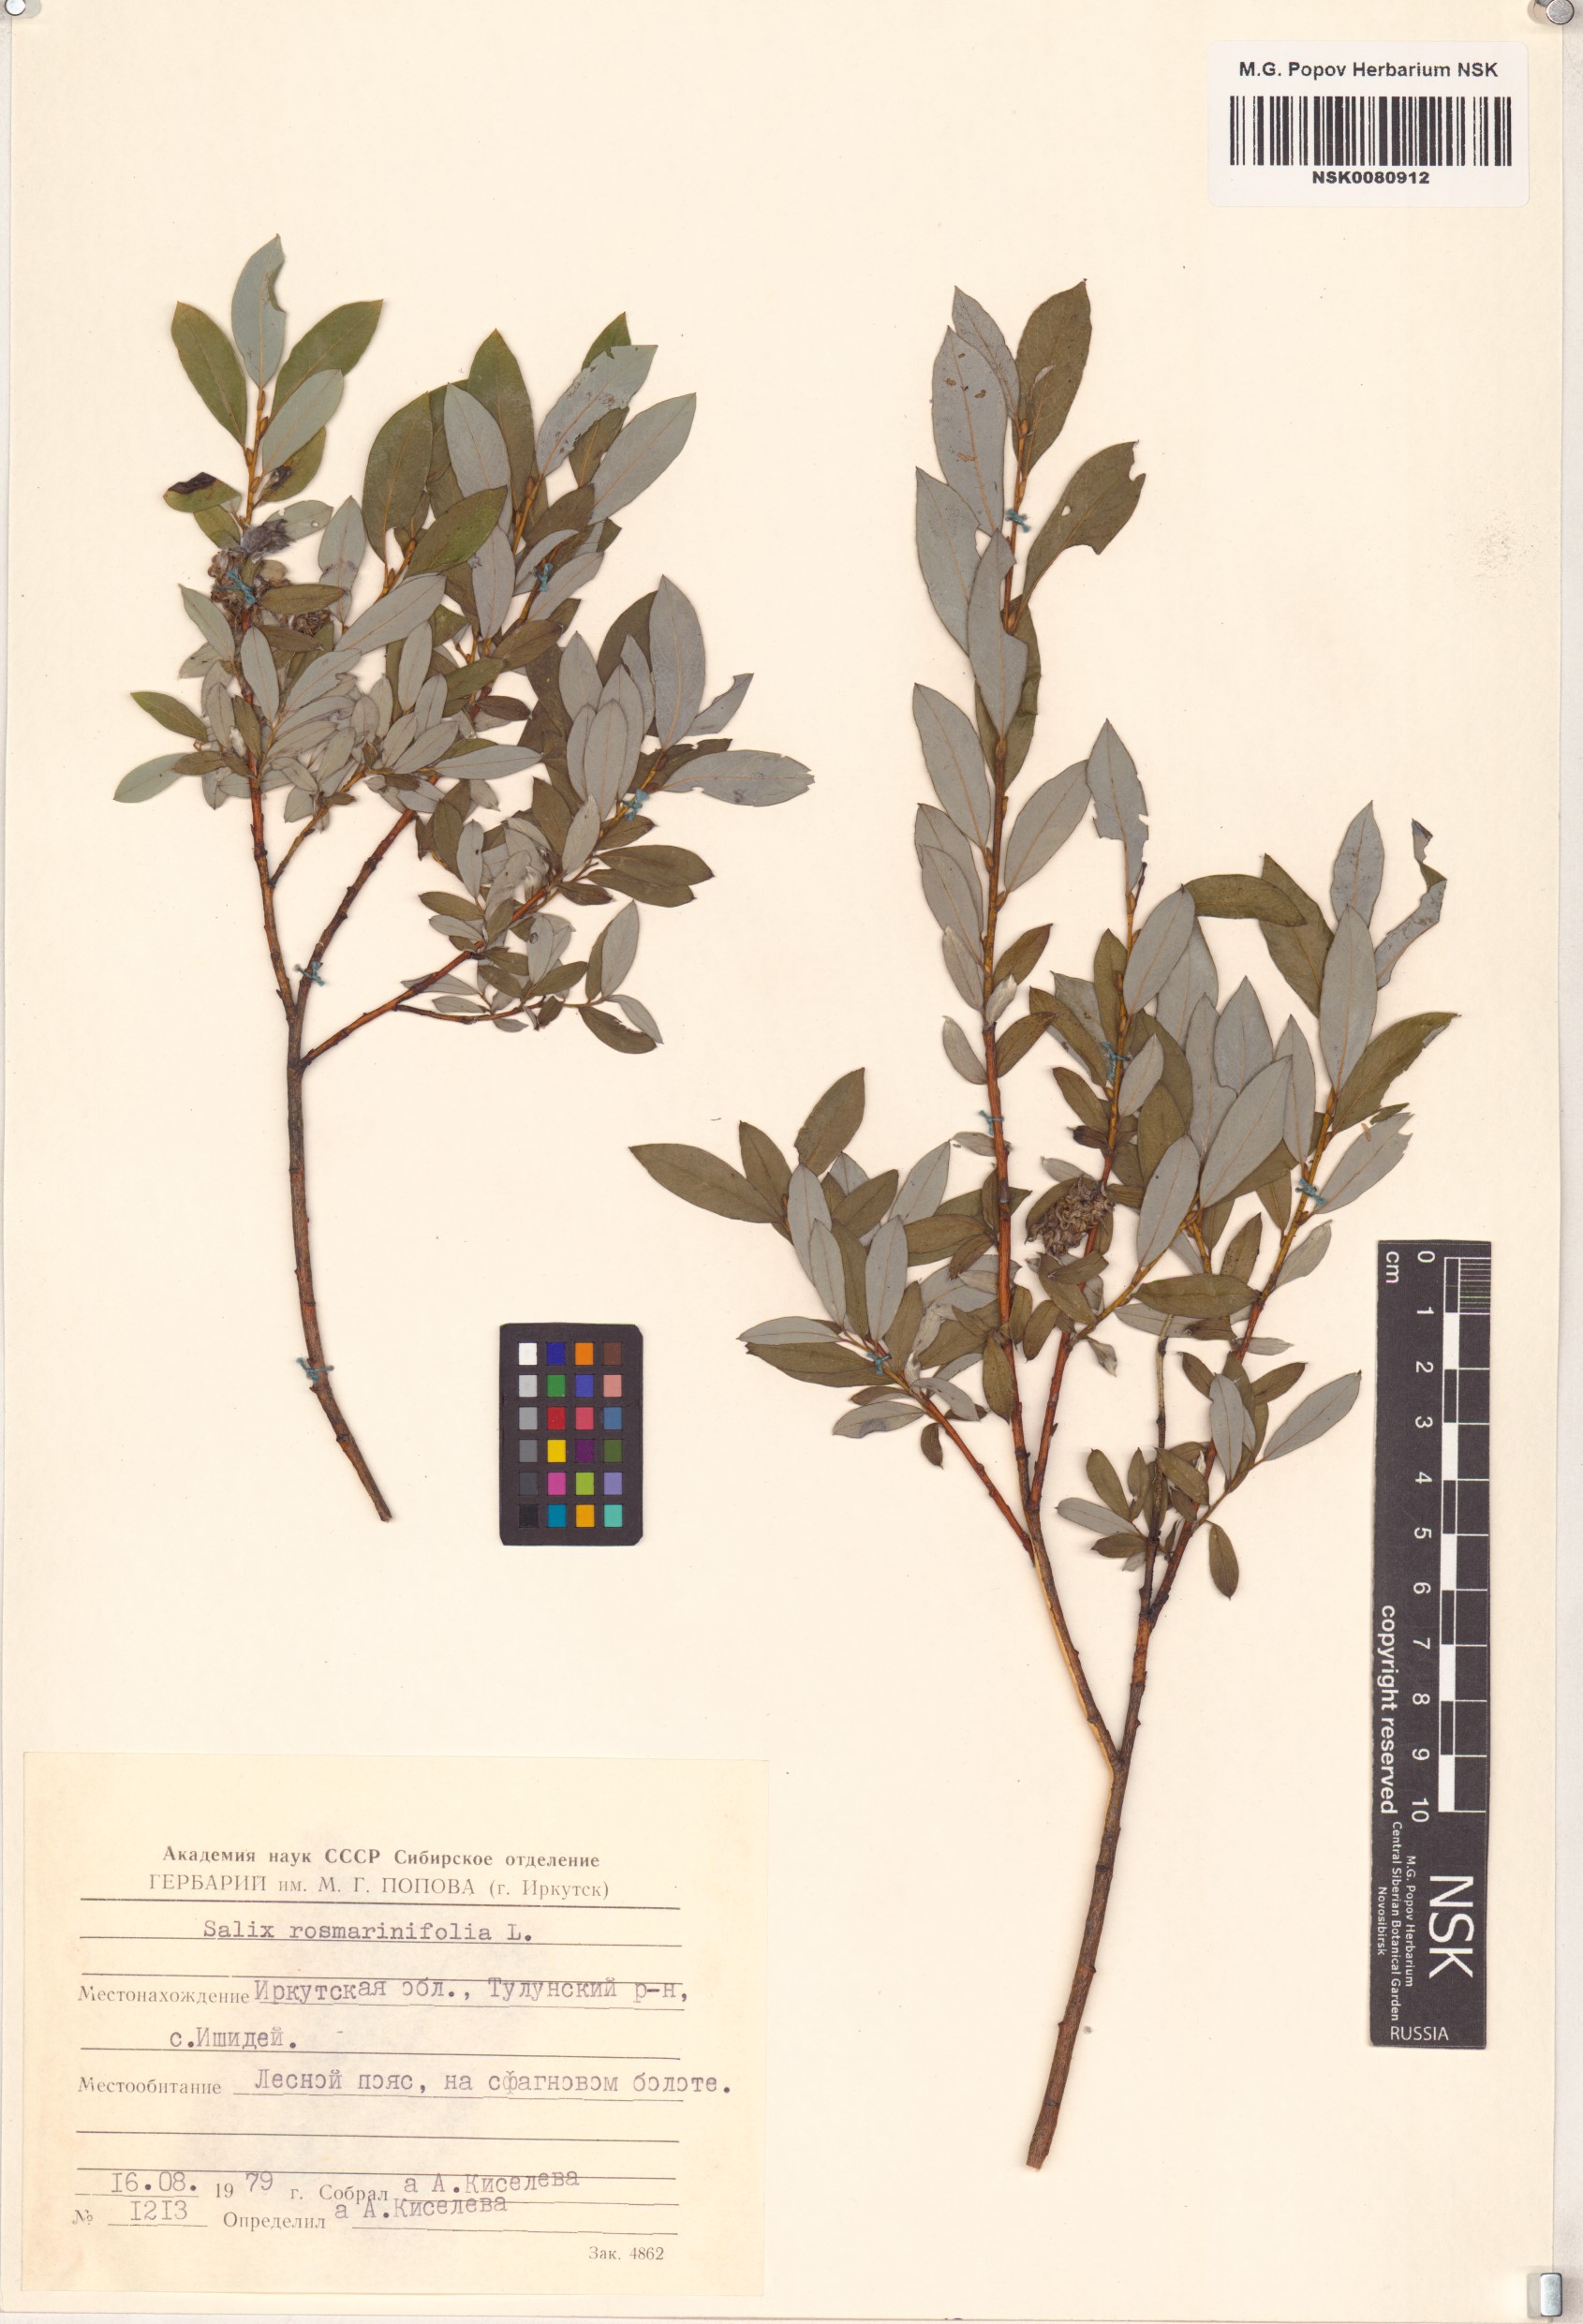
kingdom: Plantae
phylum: Tracheophyta
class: Magnoliopsida
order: Malpighiales
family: Salicaceae
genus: Salix
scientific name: Salix rosmarinifolia
